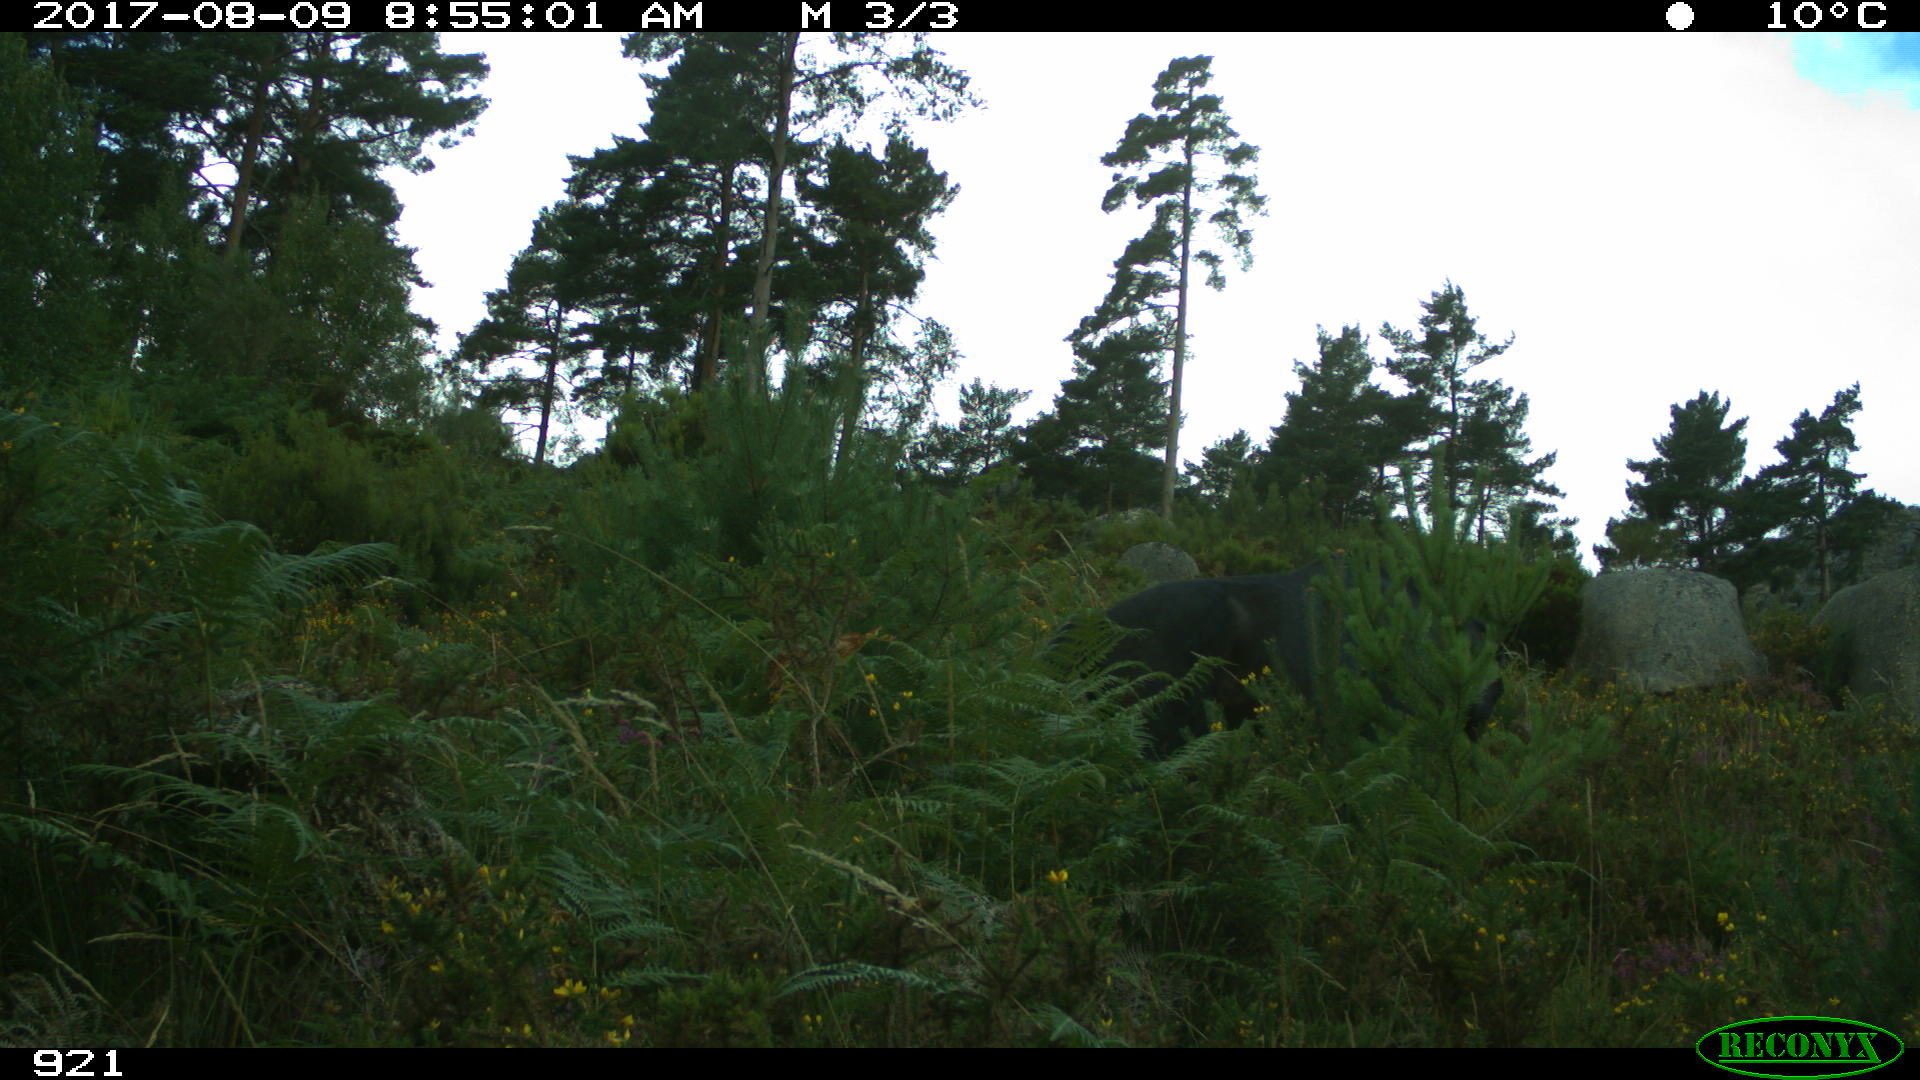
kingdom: Animalia
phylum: Chordata
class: Mammalia
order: Perissodactyla
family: Equidae
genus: Equus
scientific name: Equus caballus
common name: Horse
